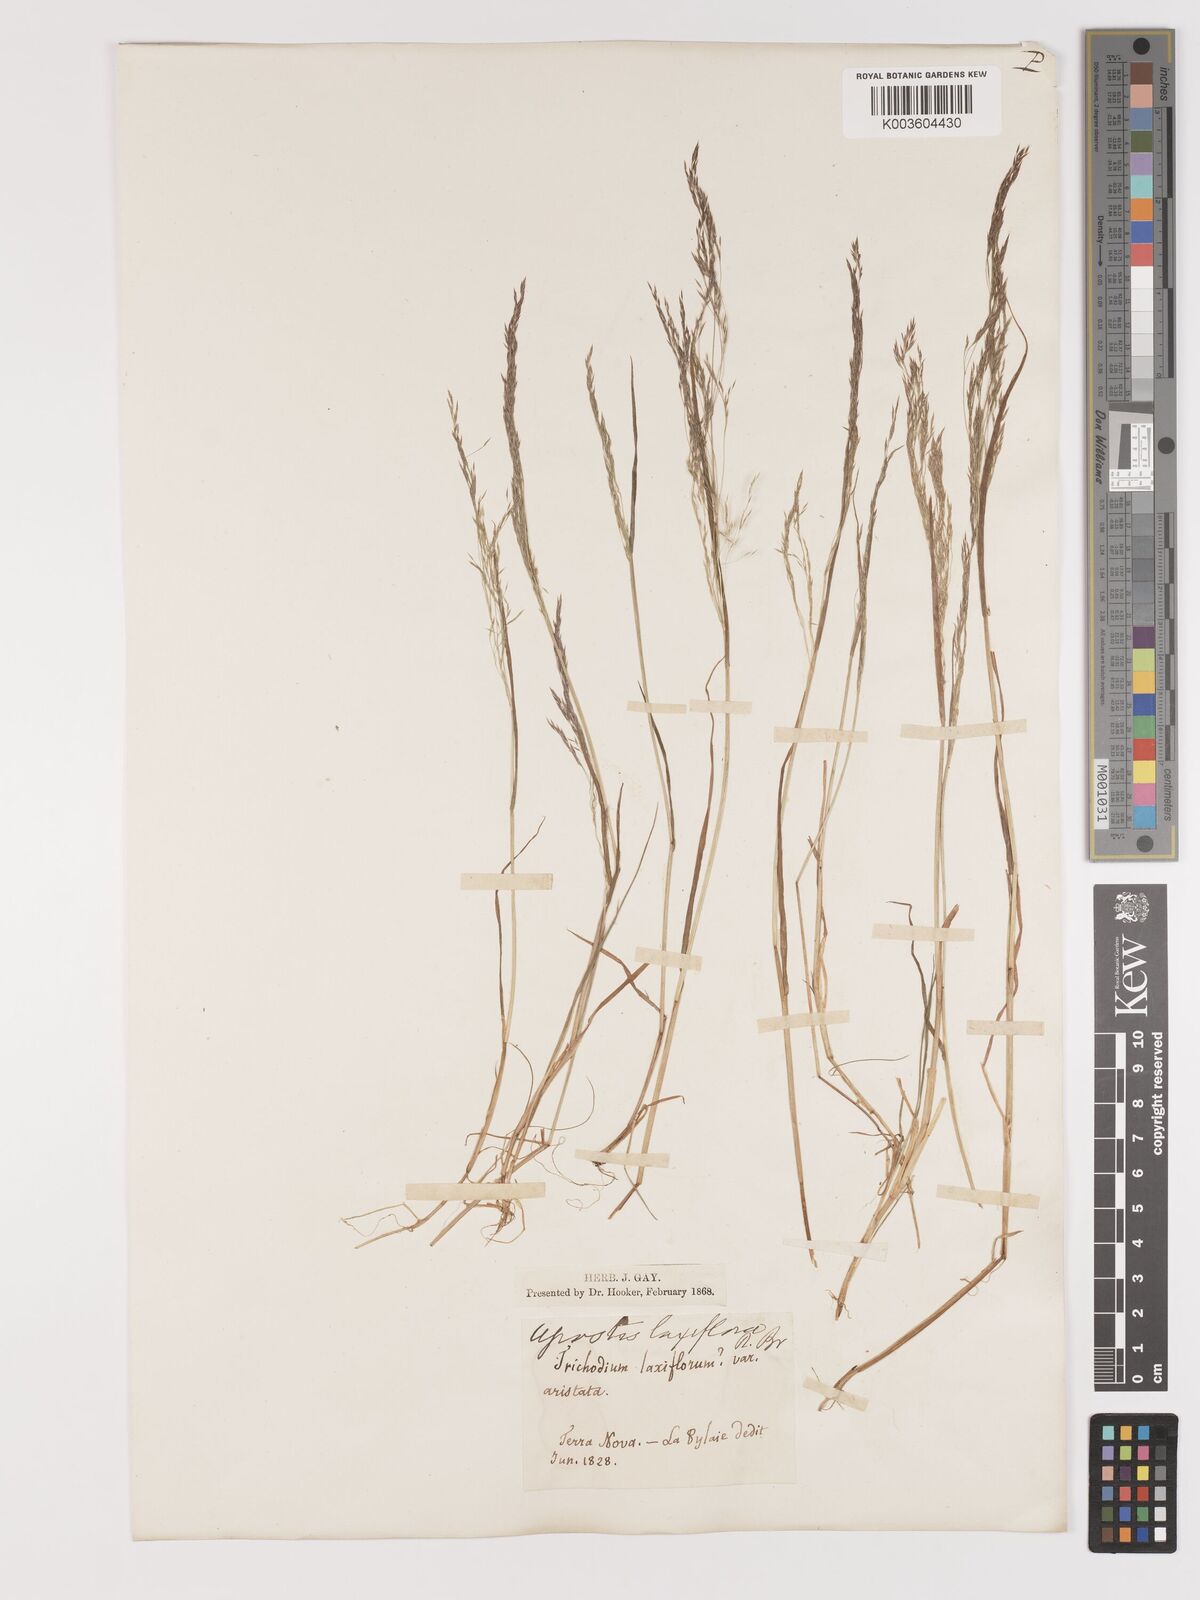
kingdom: Plantae
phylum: Tracheophyta
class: Liliopsida
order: Poales
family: Poaceae
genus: Agrostis
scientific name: Agrostis hyemalis
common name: Small bent
